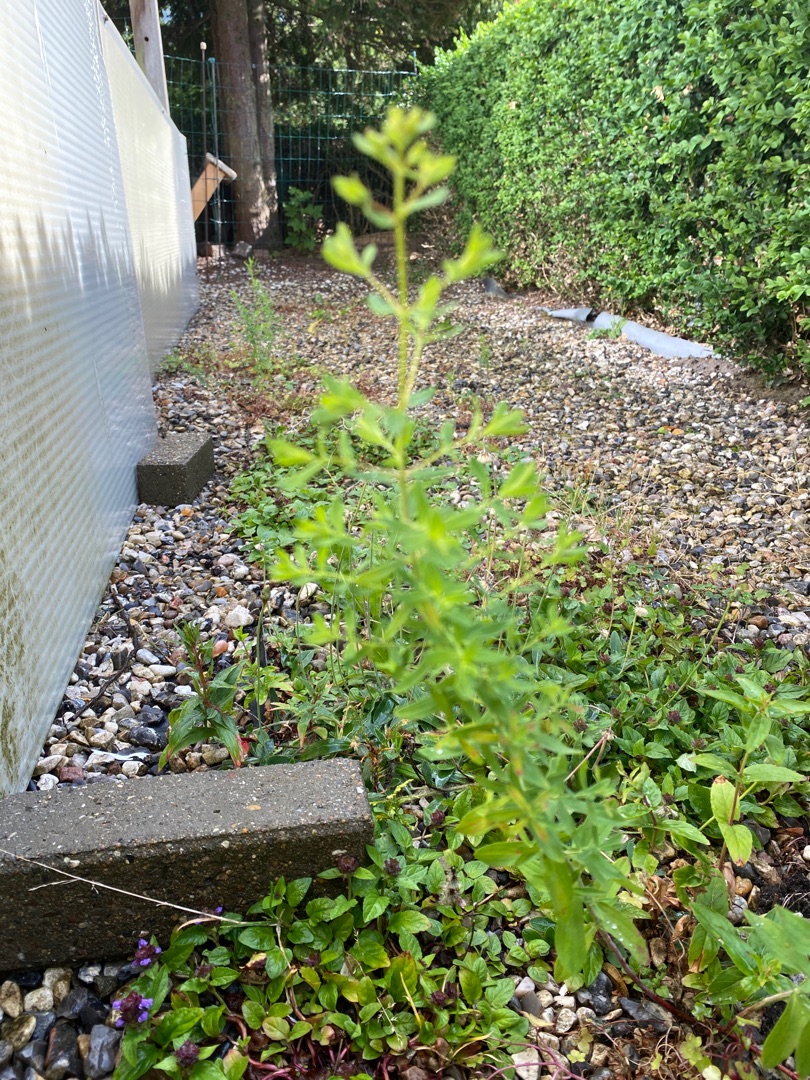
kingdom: Plantae
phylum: Tracheophyta
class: Magnoliopsida
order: Malpighiales
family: Hypericaceae
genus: Hypericum
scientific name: Hypericum
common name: Perikonslægten
